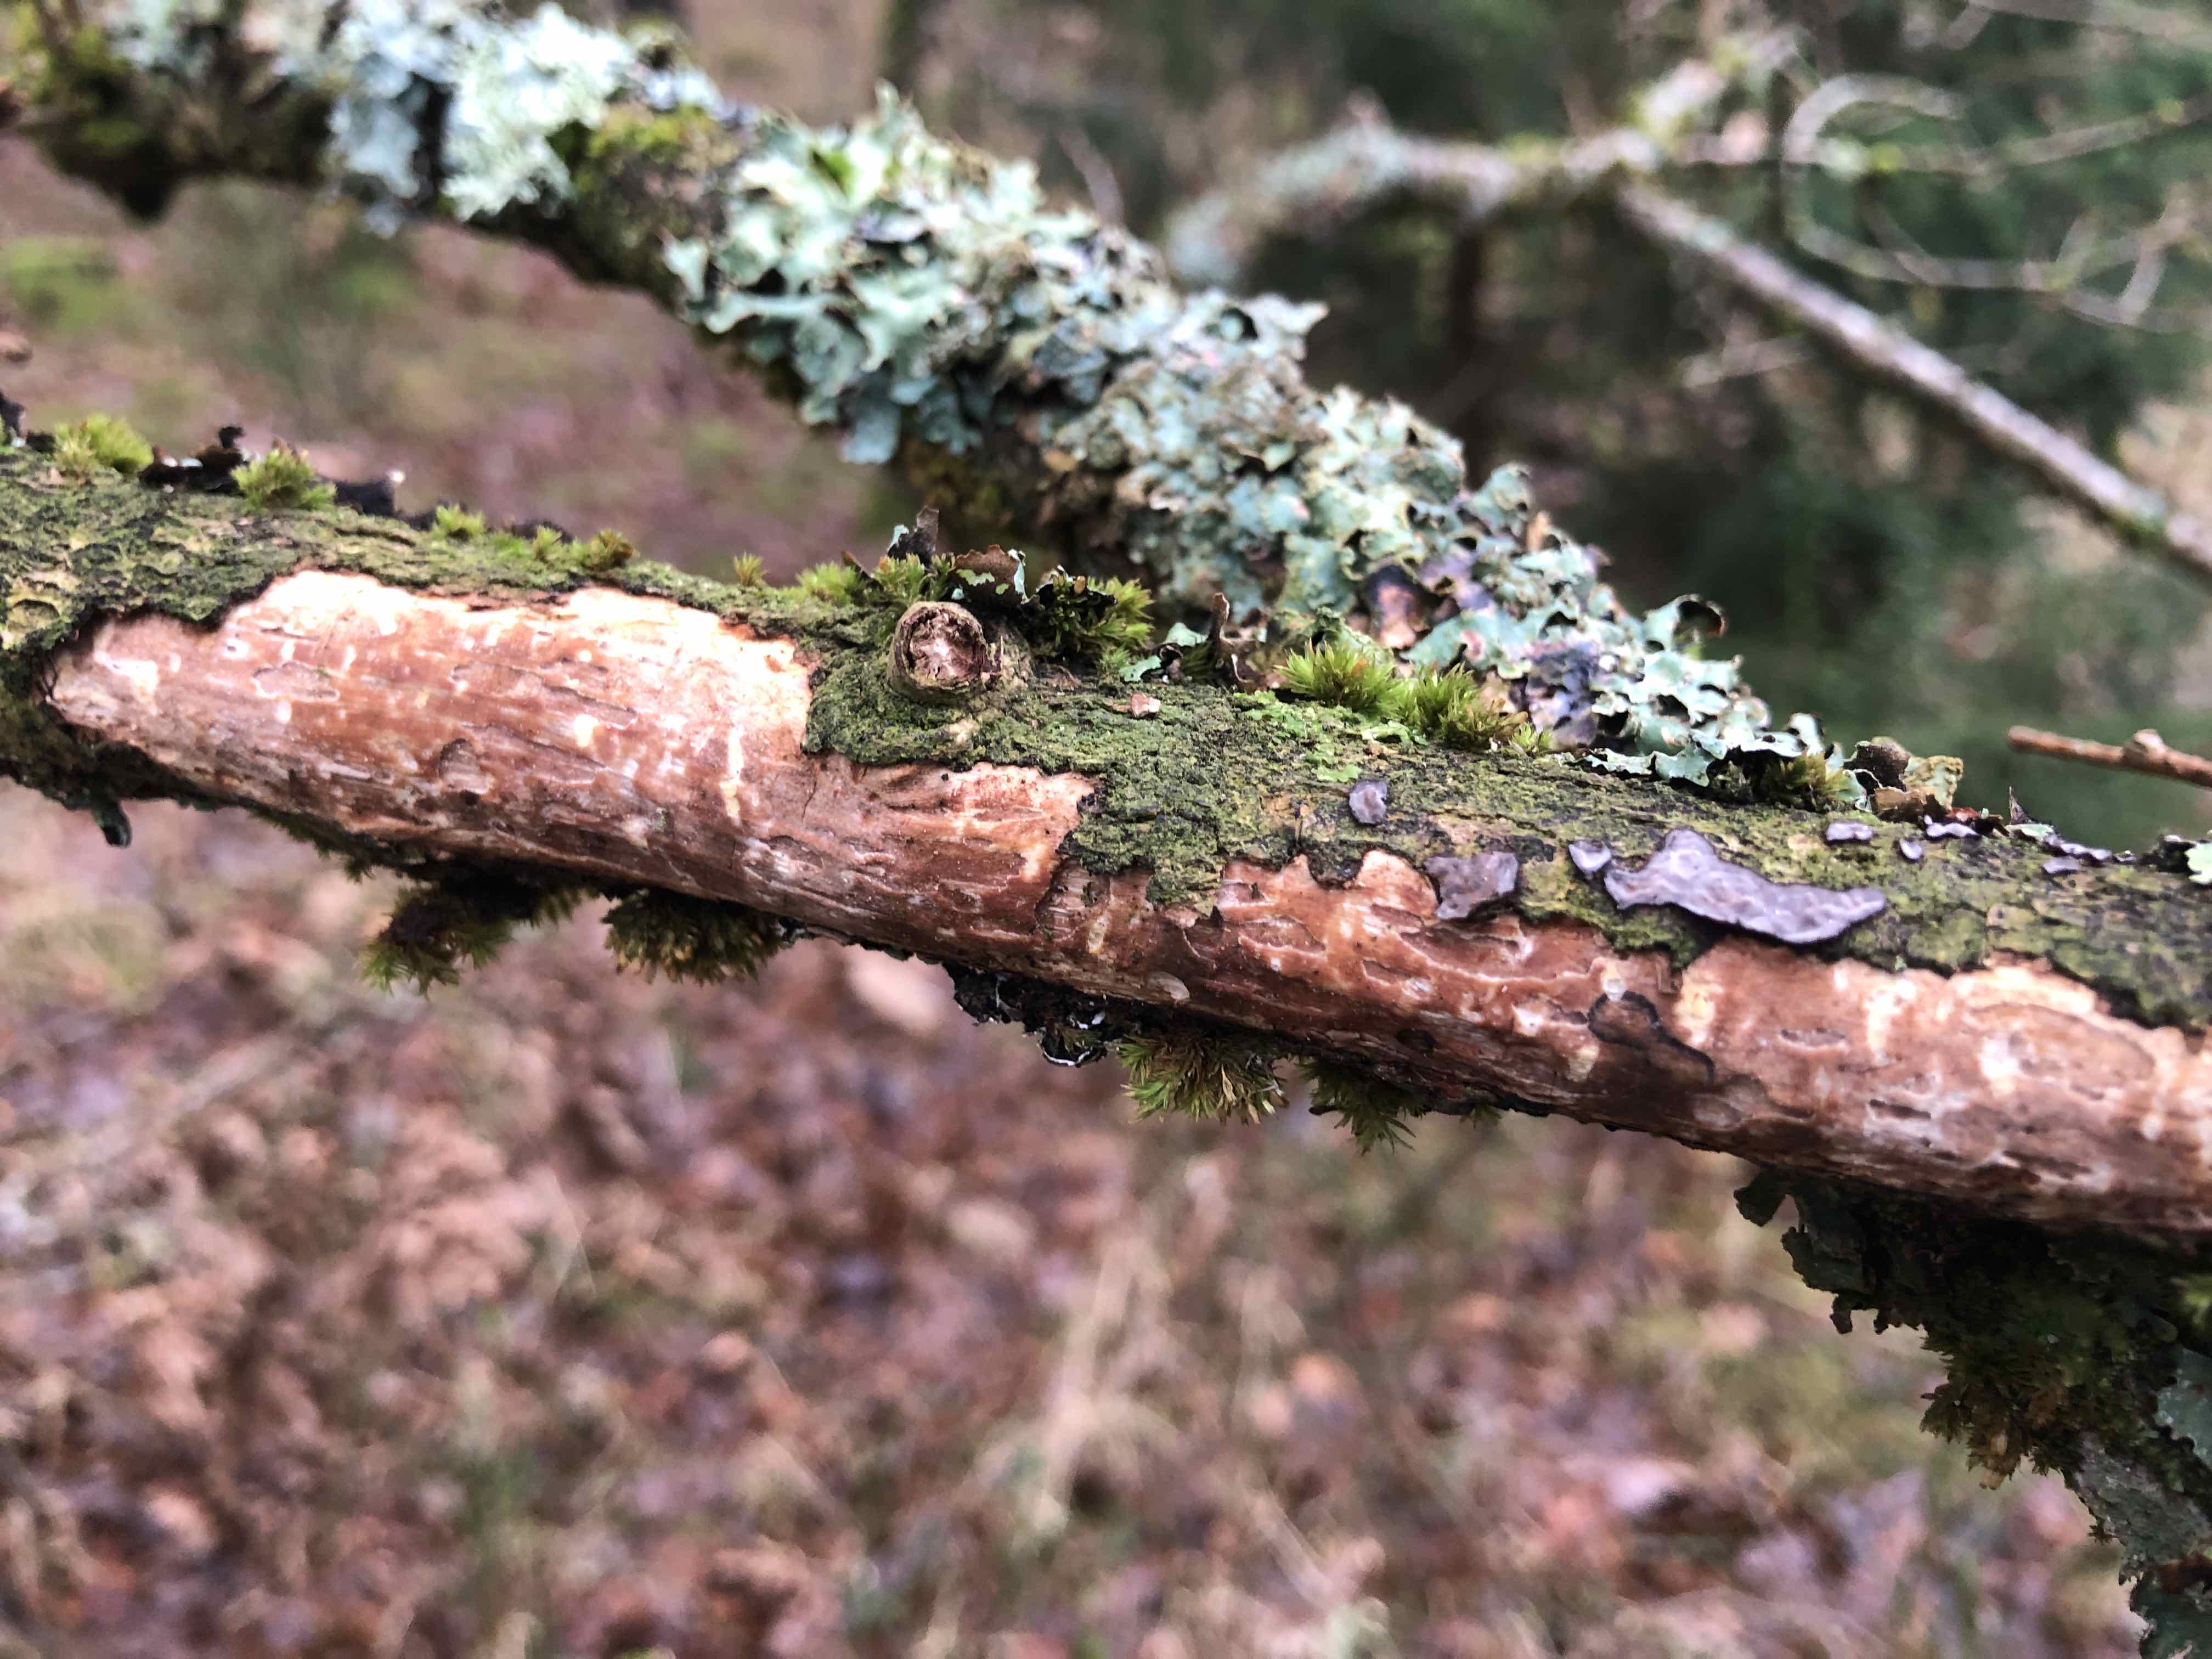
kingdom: Fungi
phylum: Basidiomycota
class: Agaricomycetes
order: Corticiales
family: Vuilleminiaceae
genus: Vuilleminia
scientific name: Vuilleminia comedens
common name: almindelig barksprænger
